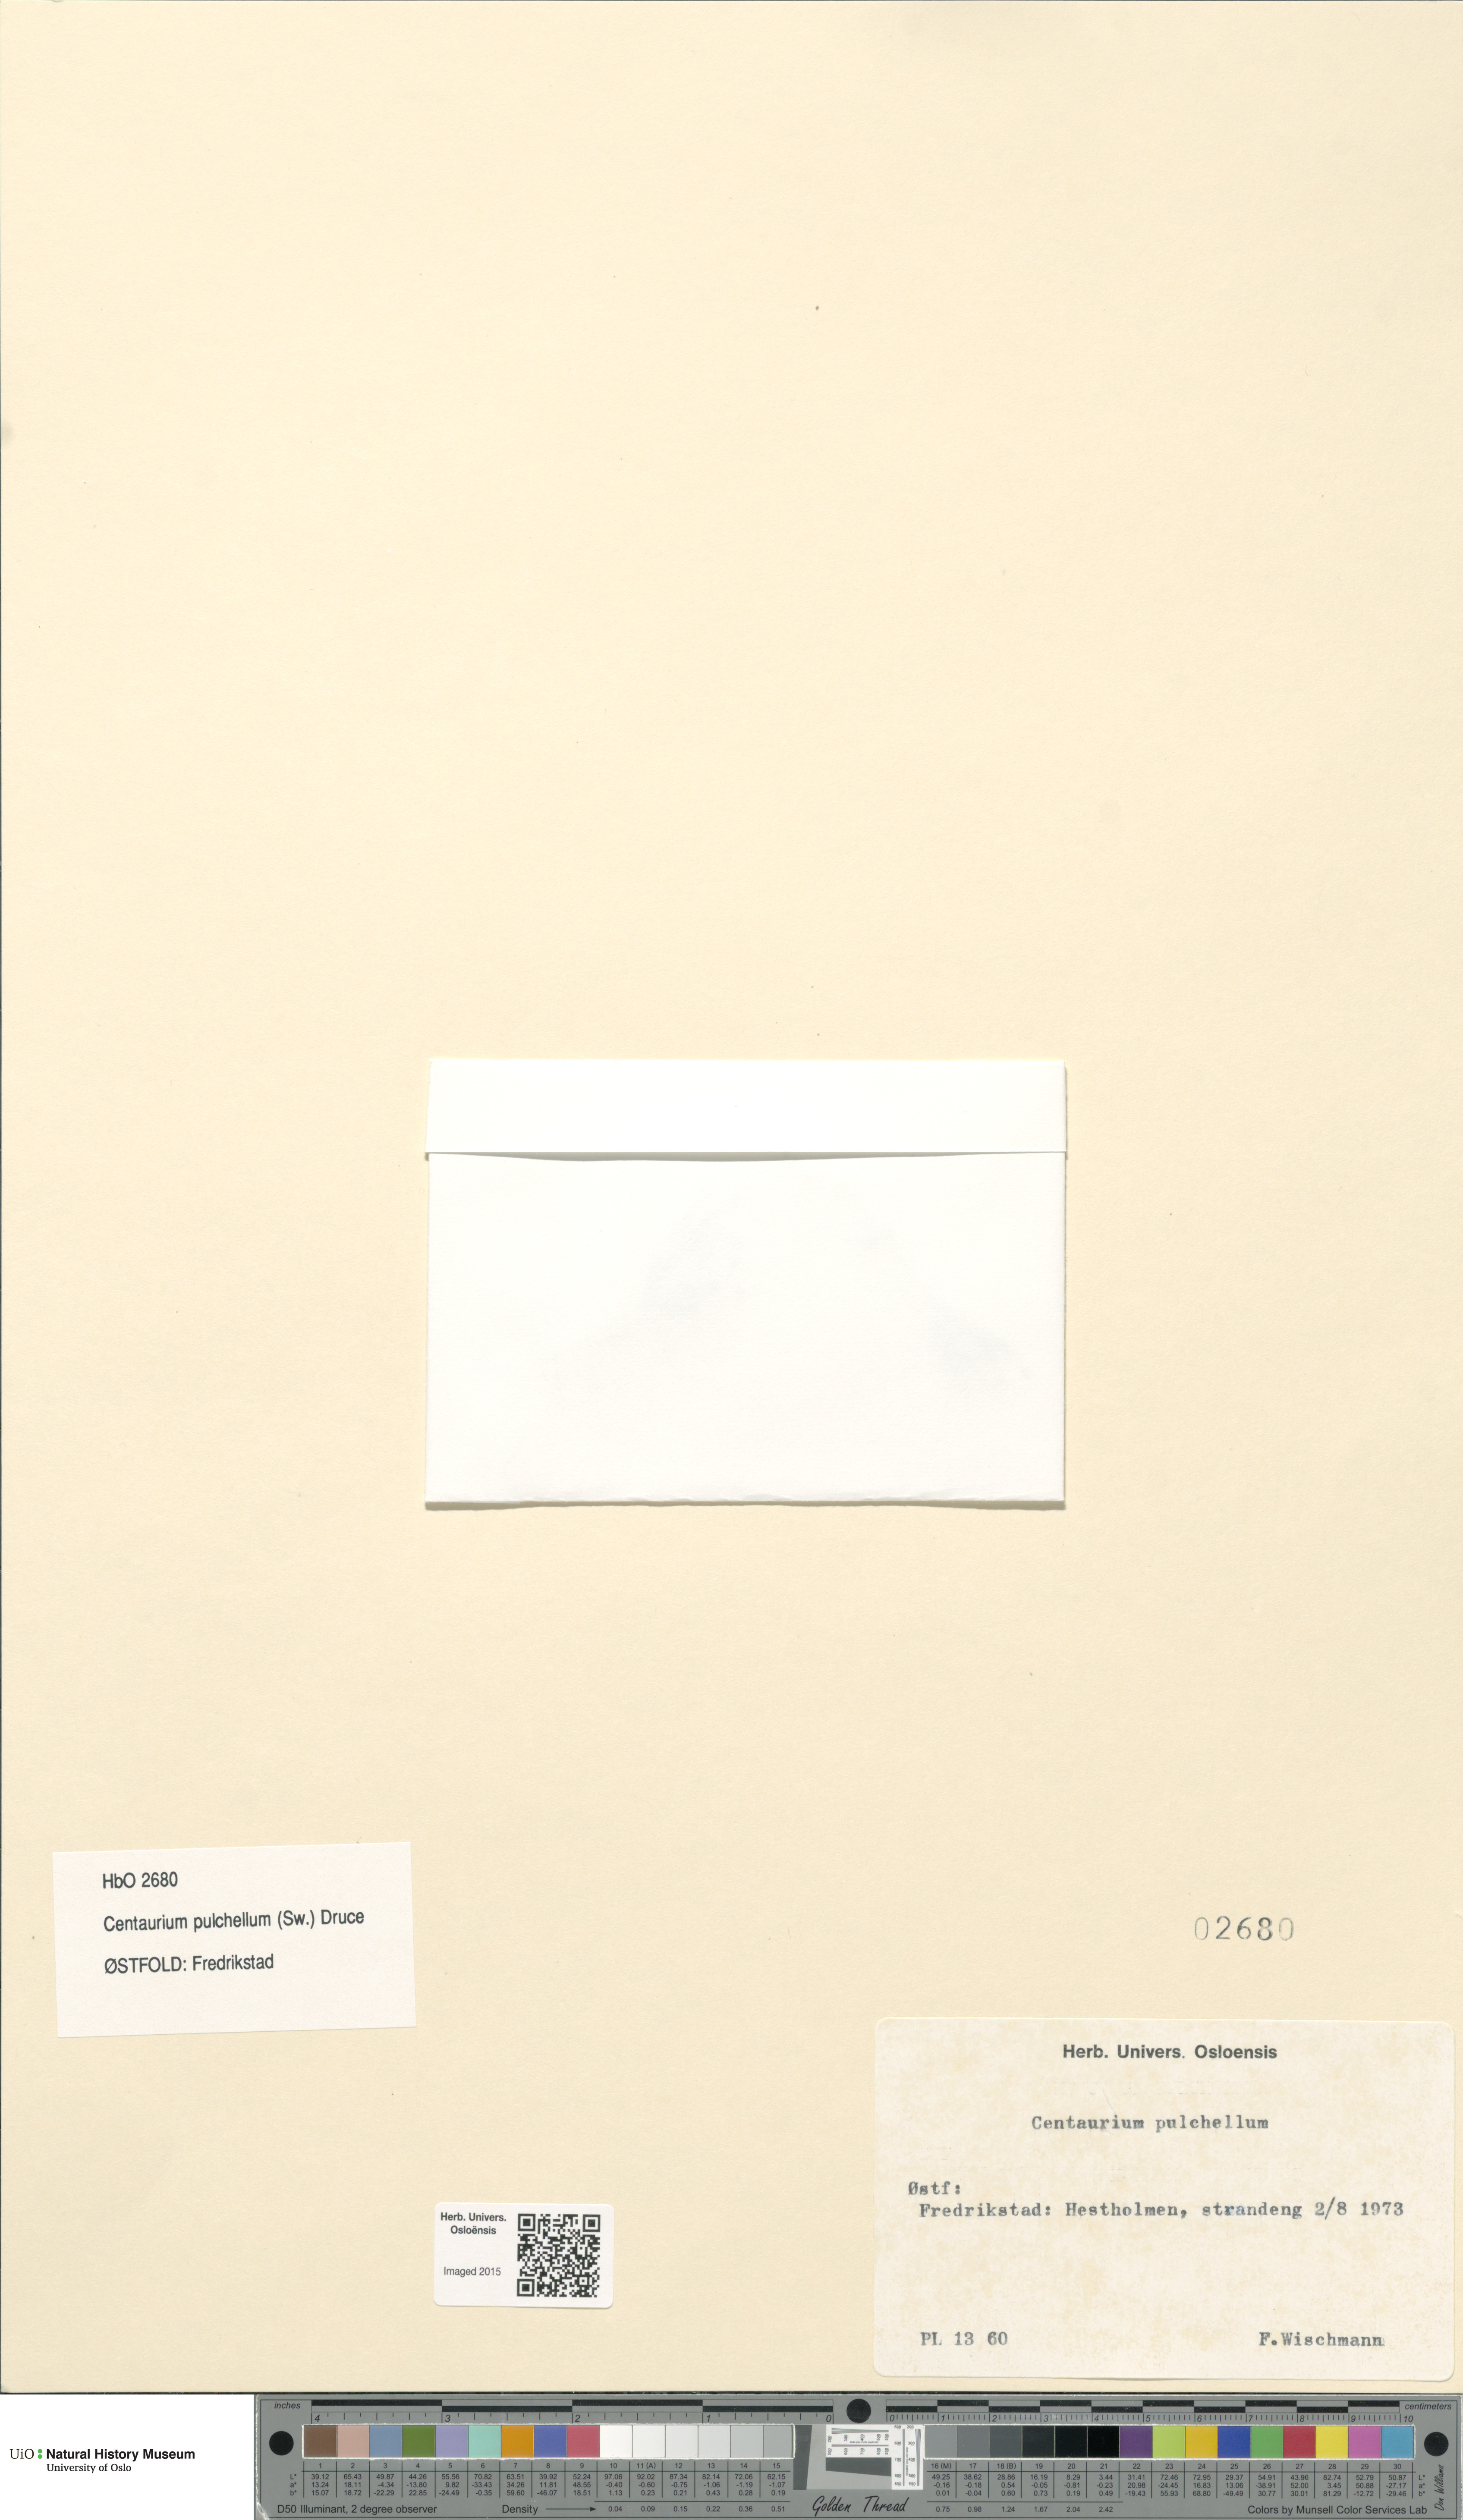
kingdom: Plantae
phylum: Tracheophyta
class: Magnoliopsida
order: Gentianales
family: Gentianaceae
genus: Centaurium
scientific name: Centaurium pulchellum
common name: Lesser centaury
